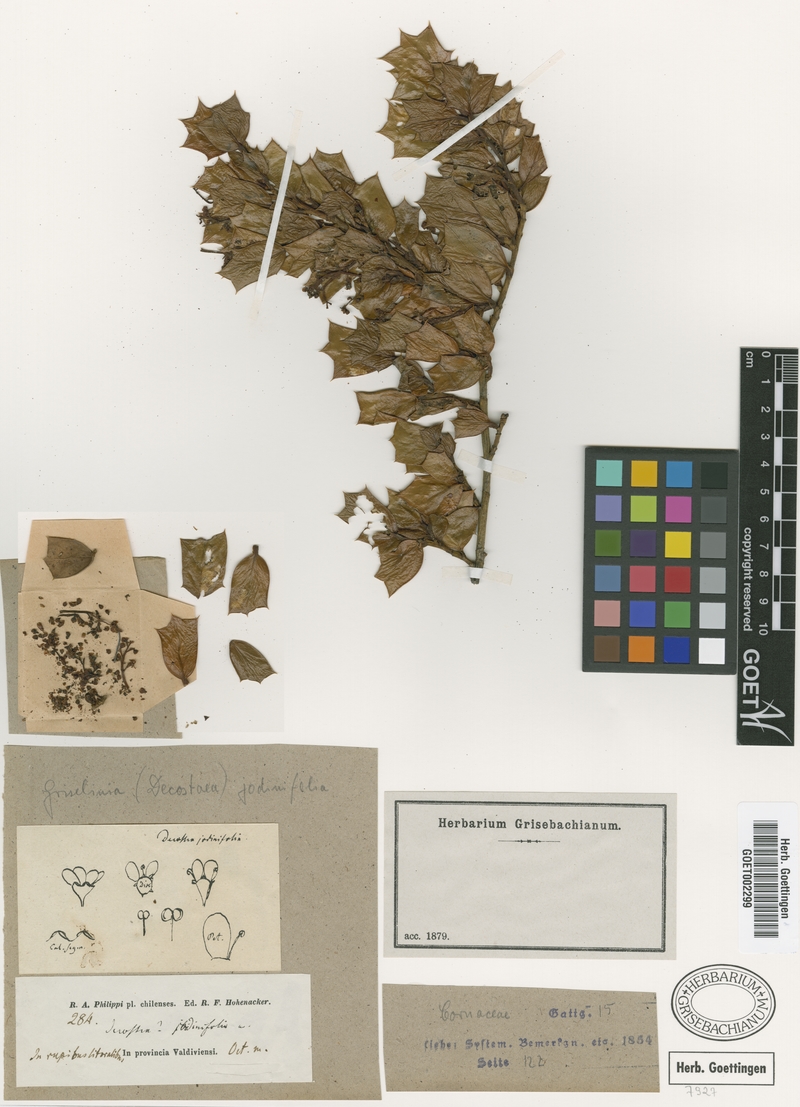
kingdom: Plantae
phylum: Tracheophyta
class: Magnoliopsida
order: Apiales
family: Griseliniaceae
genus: Griselinia
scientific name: Griselinia jodinifolia
